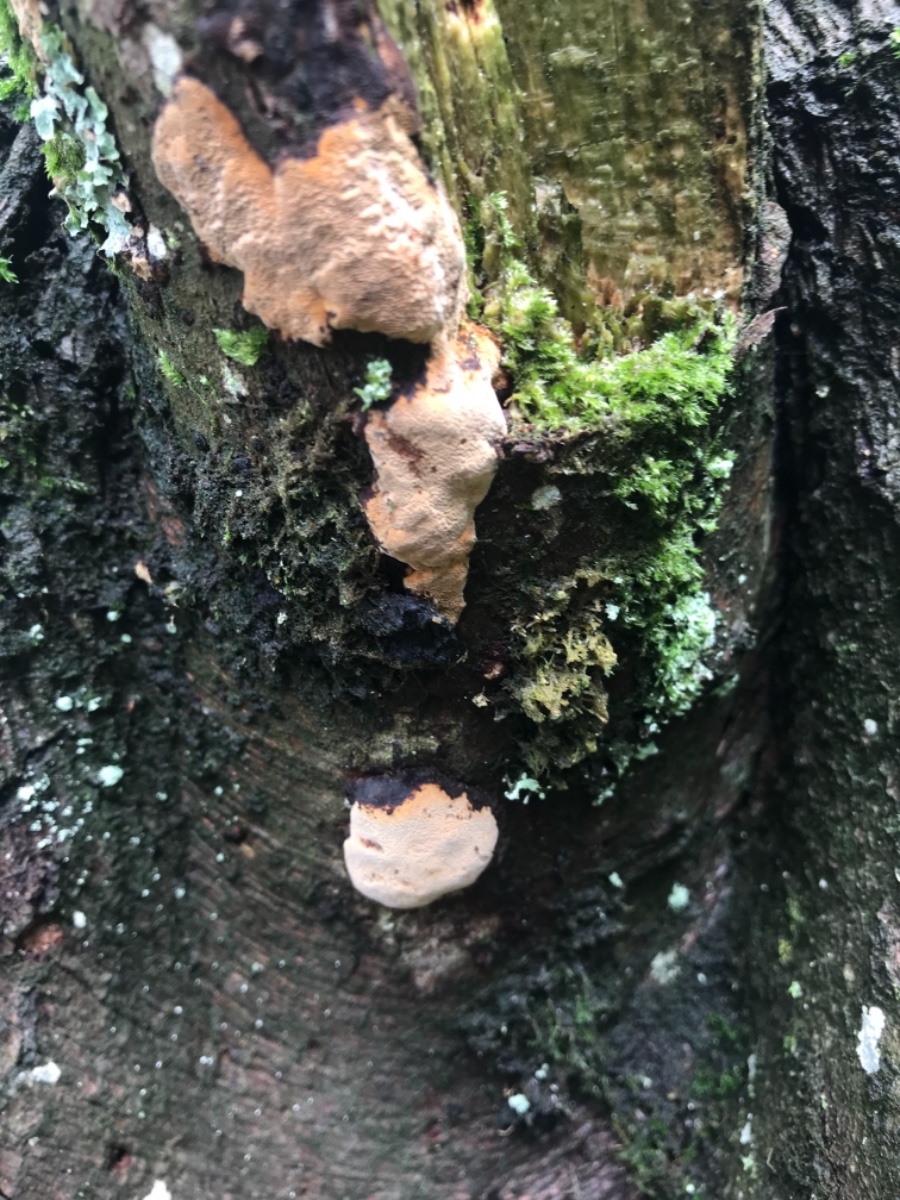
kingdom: Fungi
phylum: Basidiomycota
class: Agaricomycetes
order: Hymenochaetales
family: Hymenochaetaceae
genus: Fomitiporia
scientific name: Fomitiporia
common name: ildporesvamp
